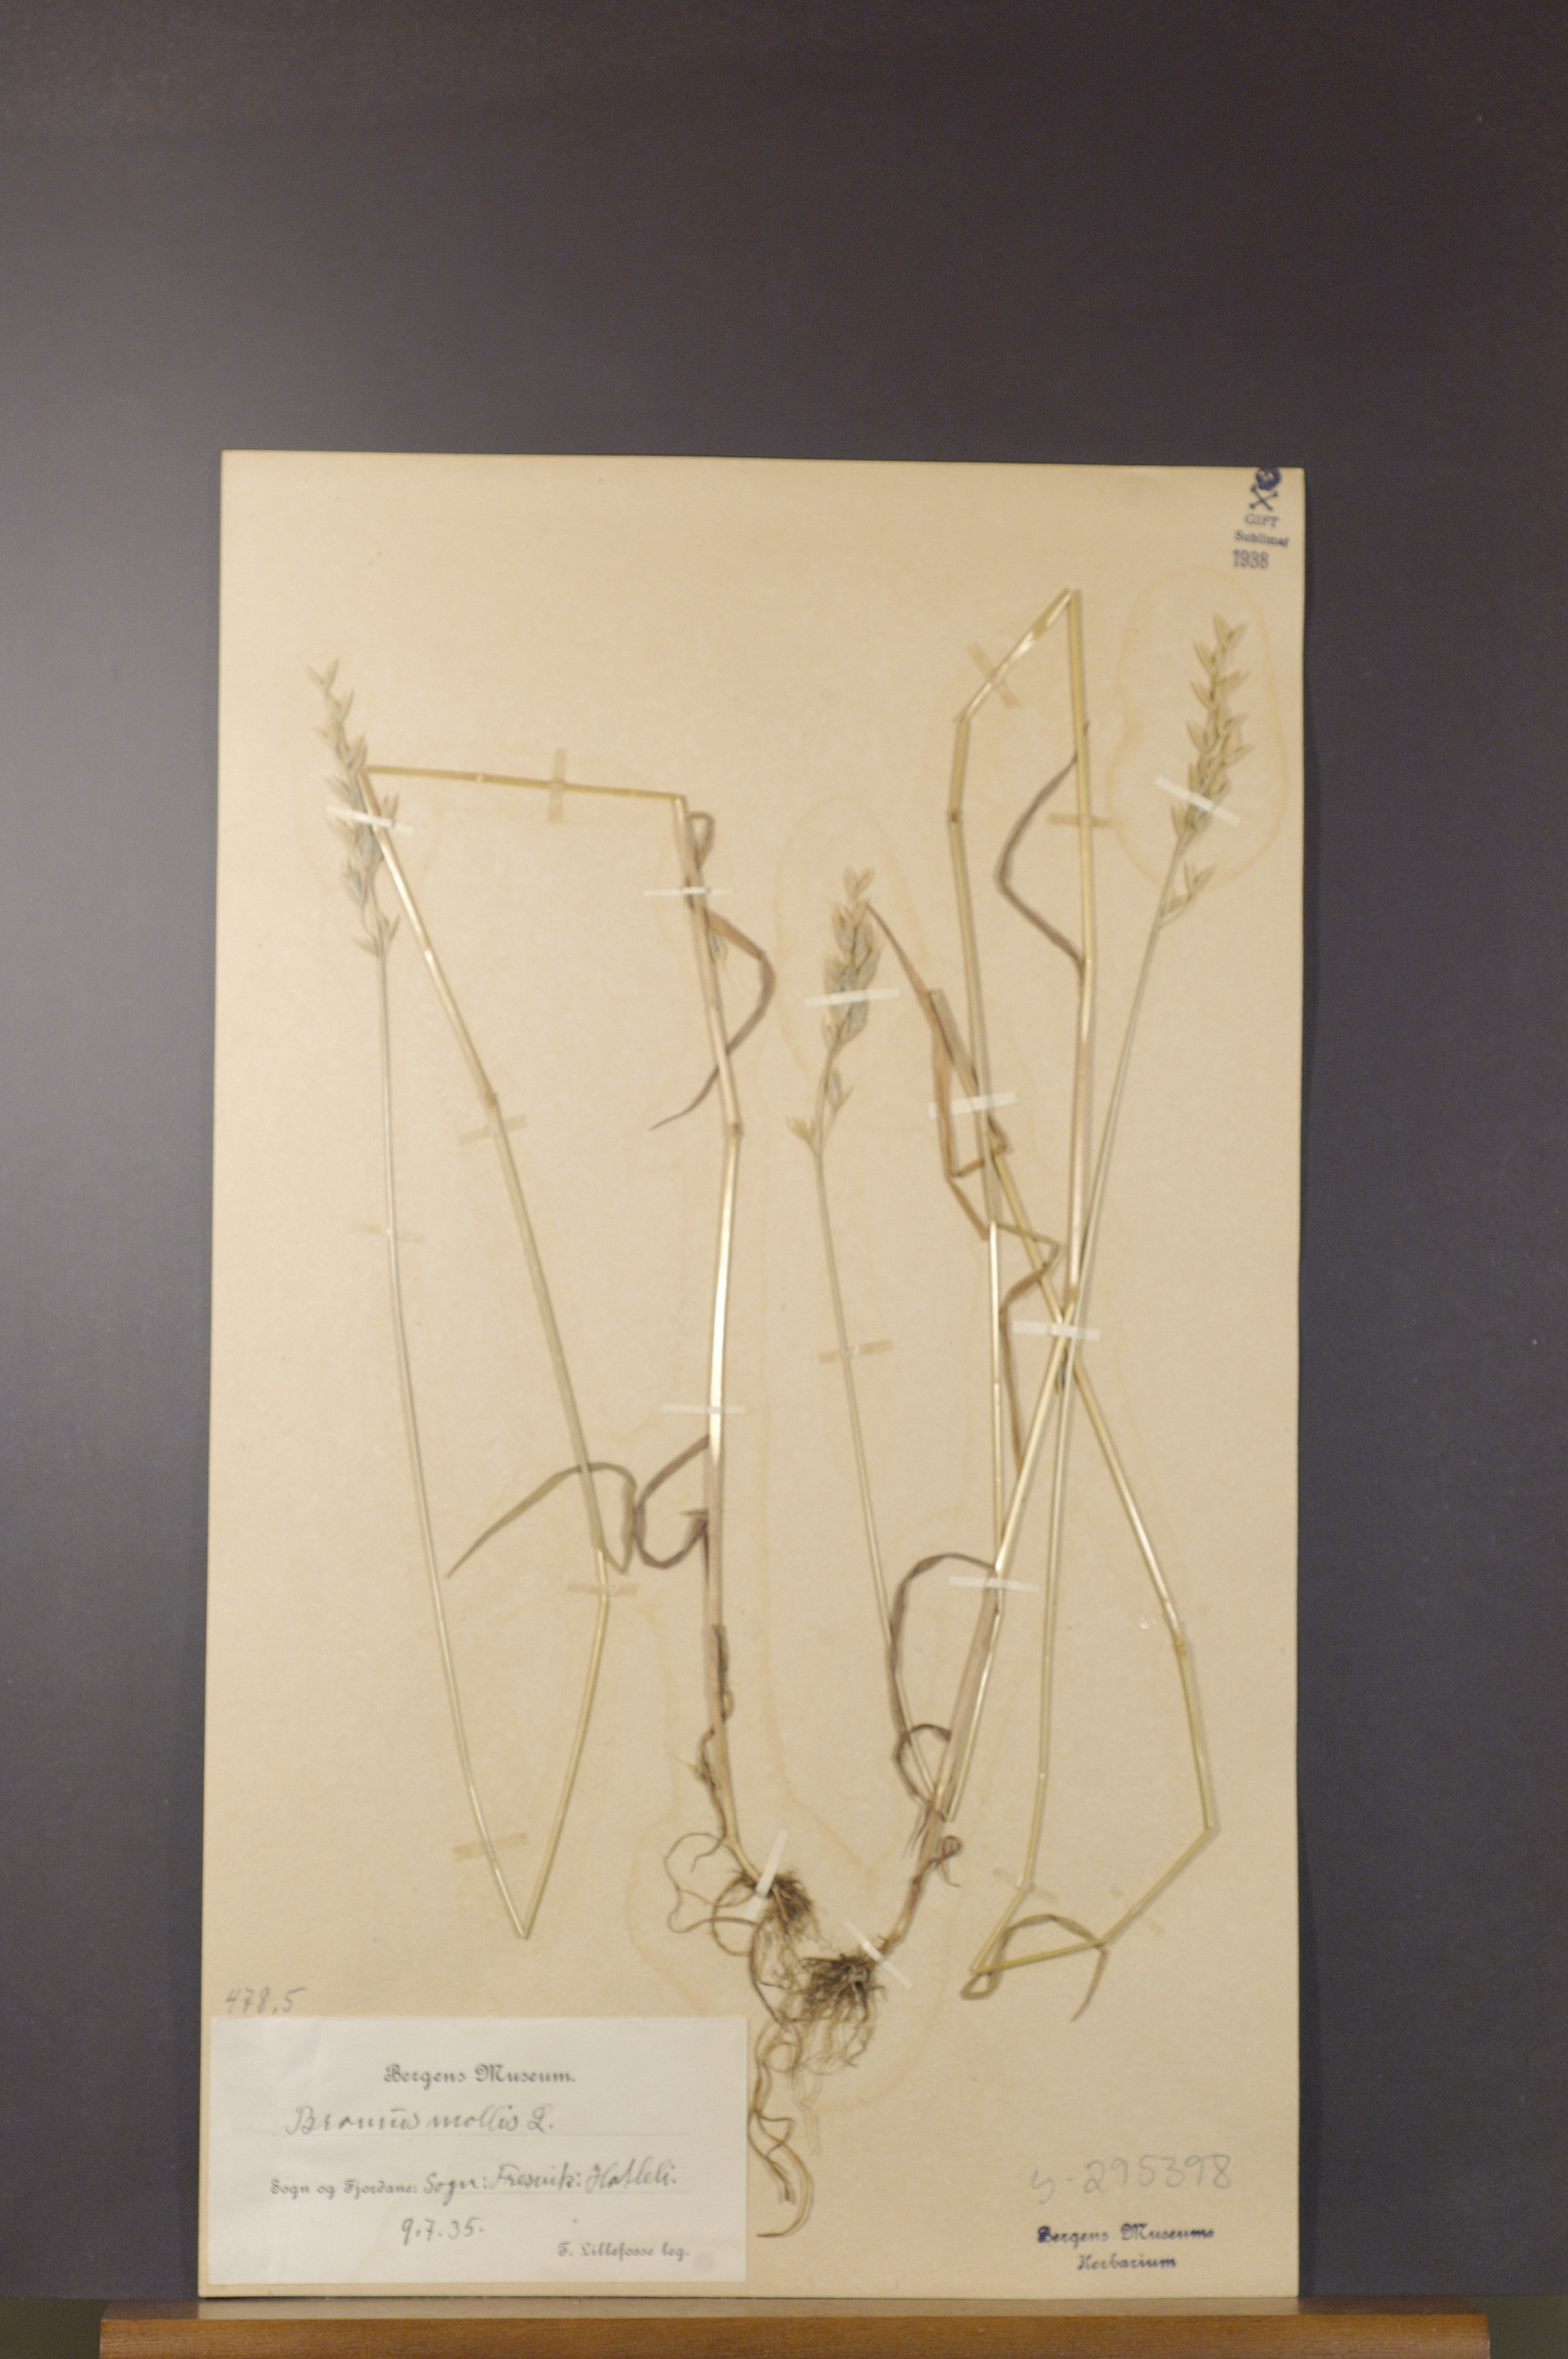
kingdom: Plantae
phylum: Tracheophyta
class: Liliopsida
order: Poales
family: Poaceae
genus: Bromus
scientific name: Bromus hordeaceus
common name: Soft brome
